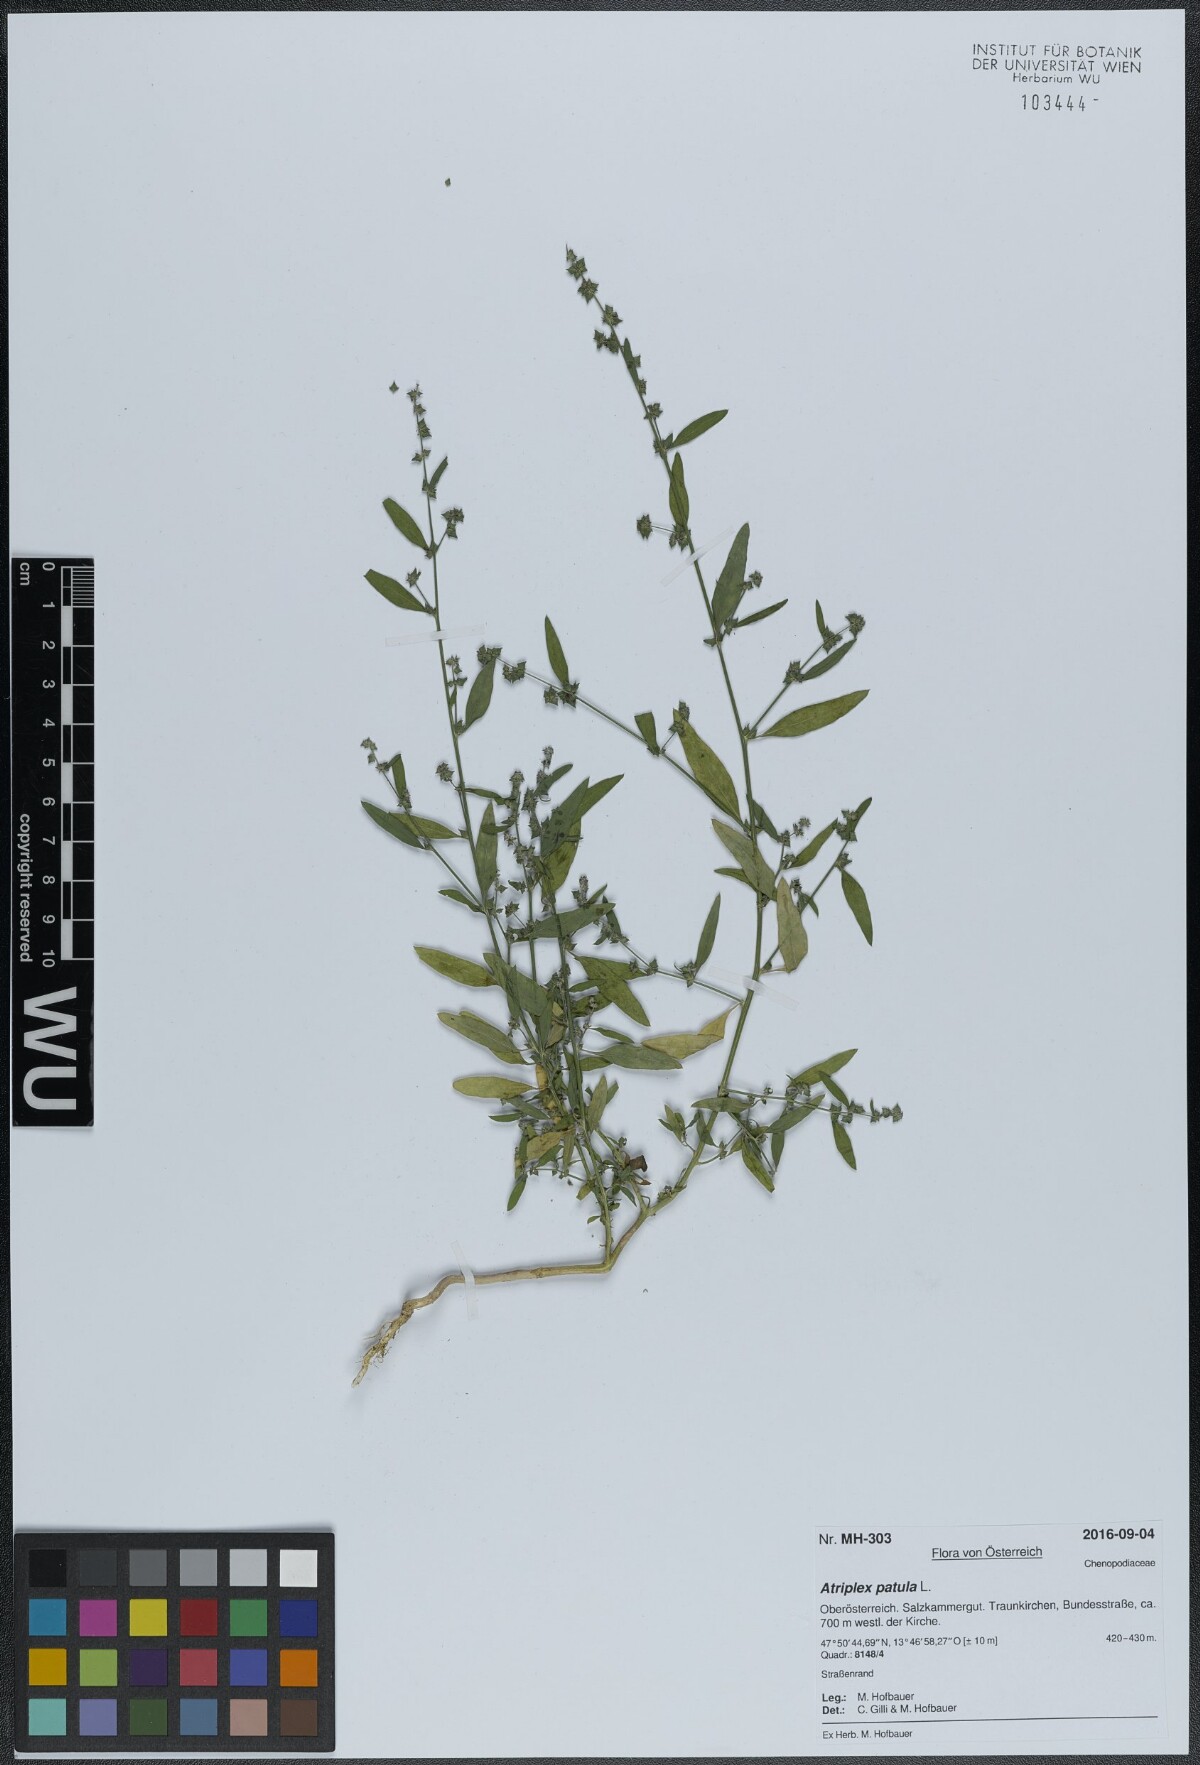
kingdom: Plantae
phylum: Tracheophyta
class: Magnoliopsida
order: Caryophyllales
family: Amaranthaceae
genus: Atriplex
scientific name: Atriplex patula
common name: Common orache
